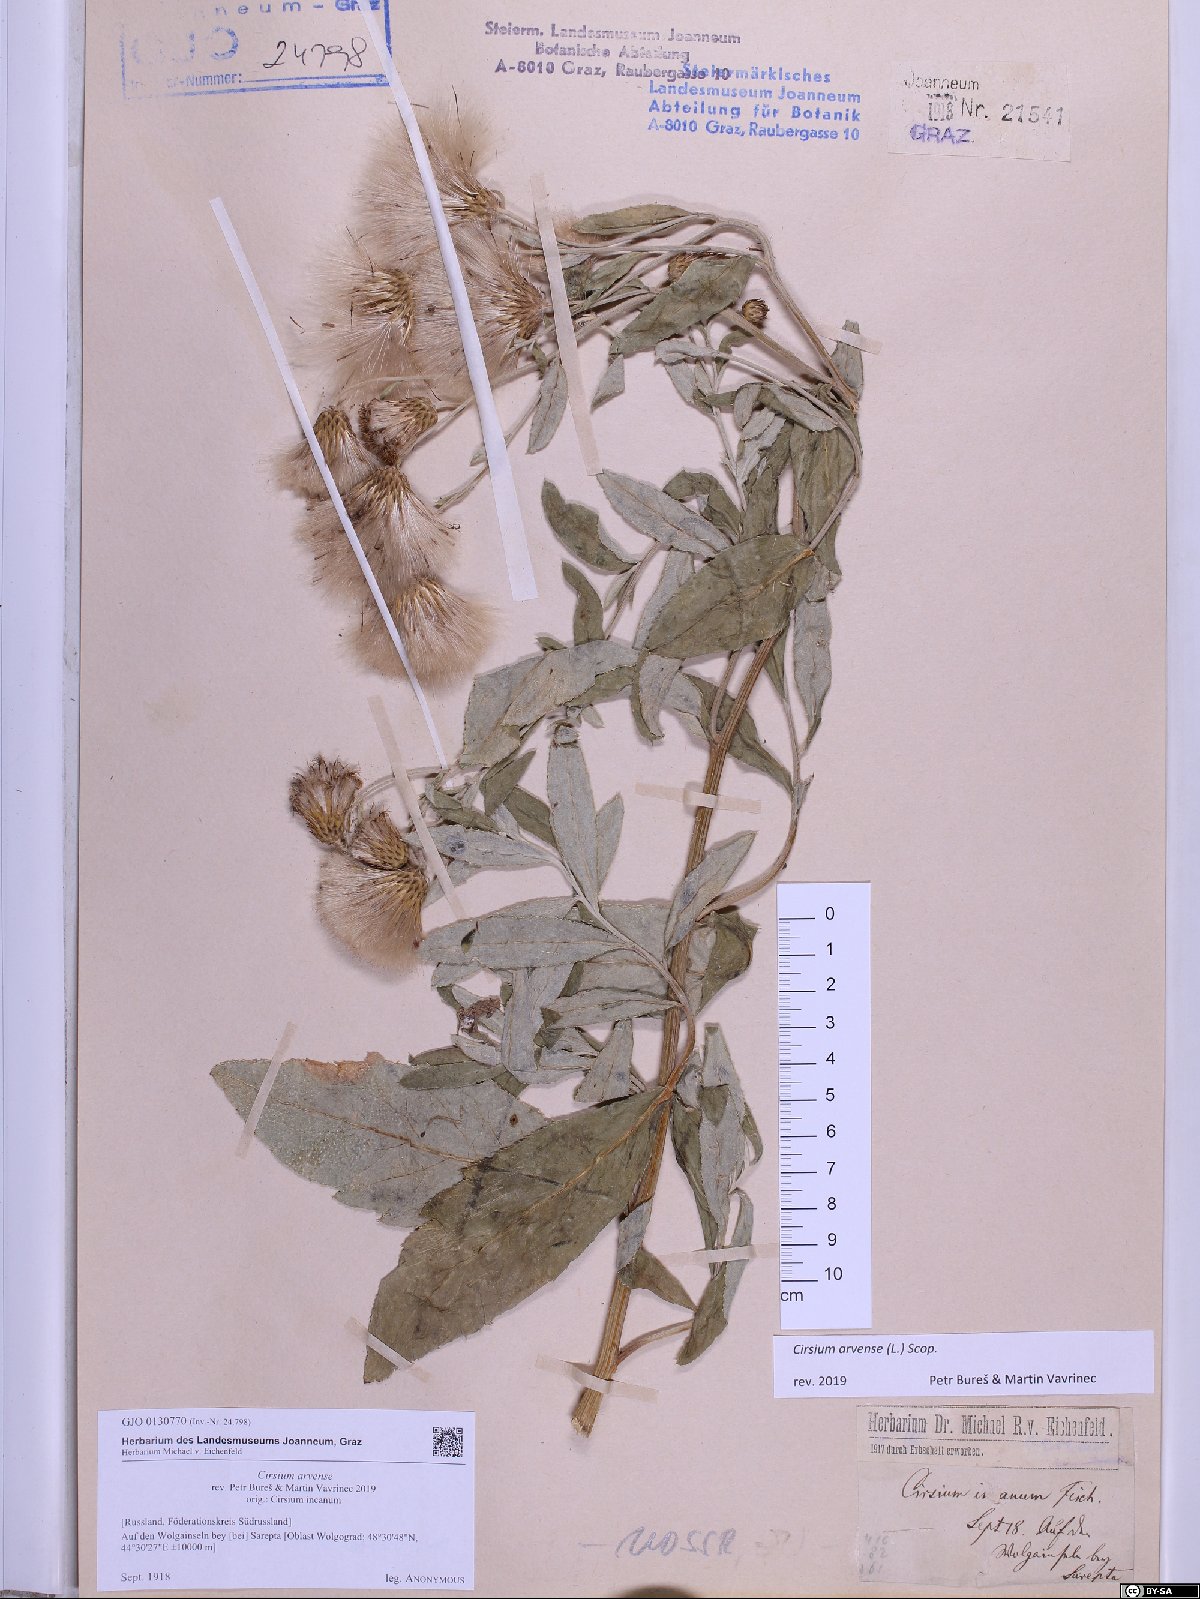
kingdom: Plantae
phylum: Tracheophyta
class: Magnoliopsida
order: Asterales
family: Asteraceae
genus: Cirsium
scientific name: Cirsium arvense
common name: Creeping thistle
